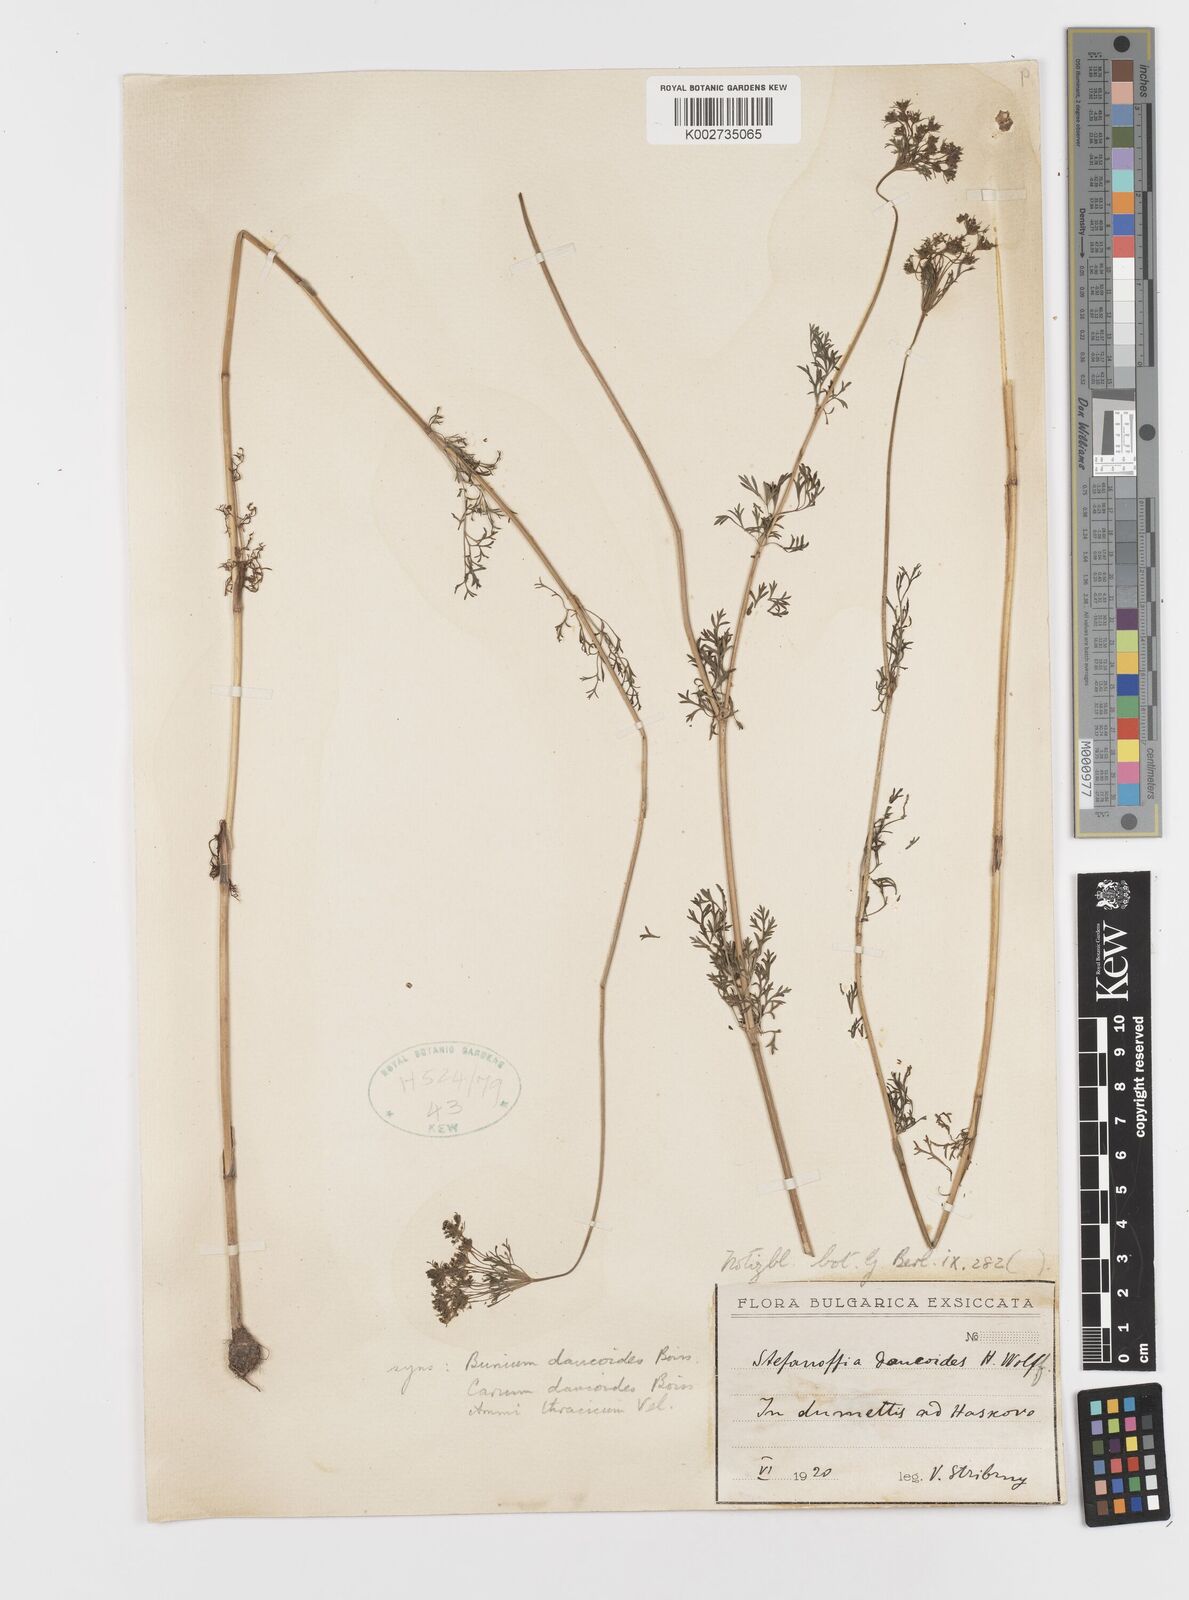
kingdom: Plantae
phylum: Tracheophyta
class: Magnoliopsida
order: Apiales
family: Apiaceae
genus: Stefanoffia
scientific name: Stefanoffia daucoides
